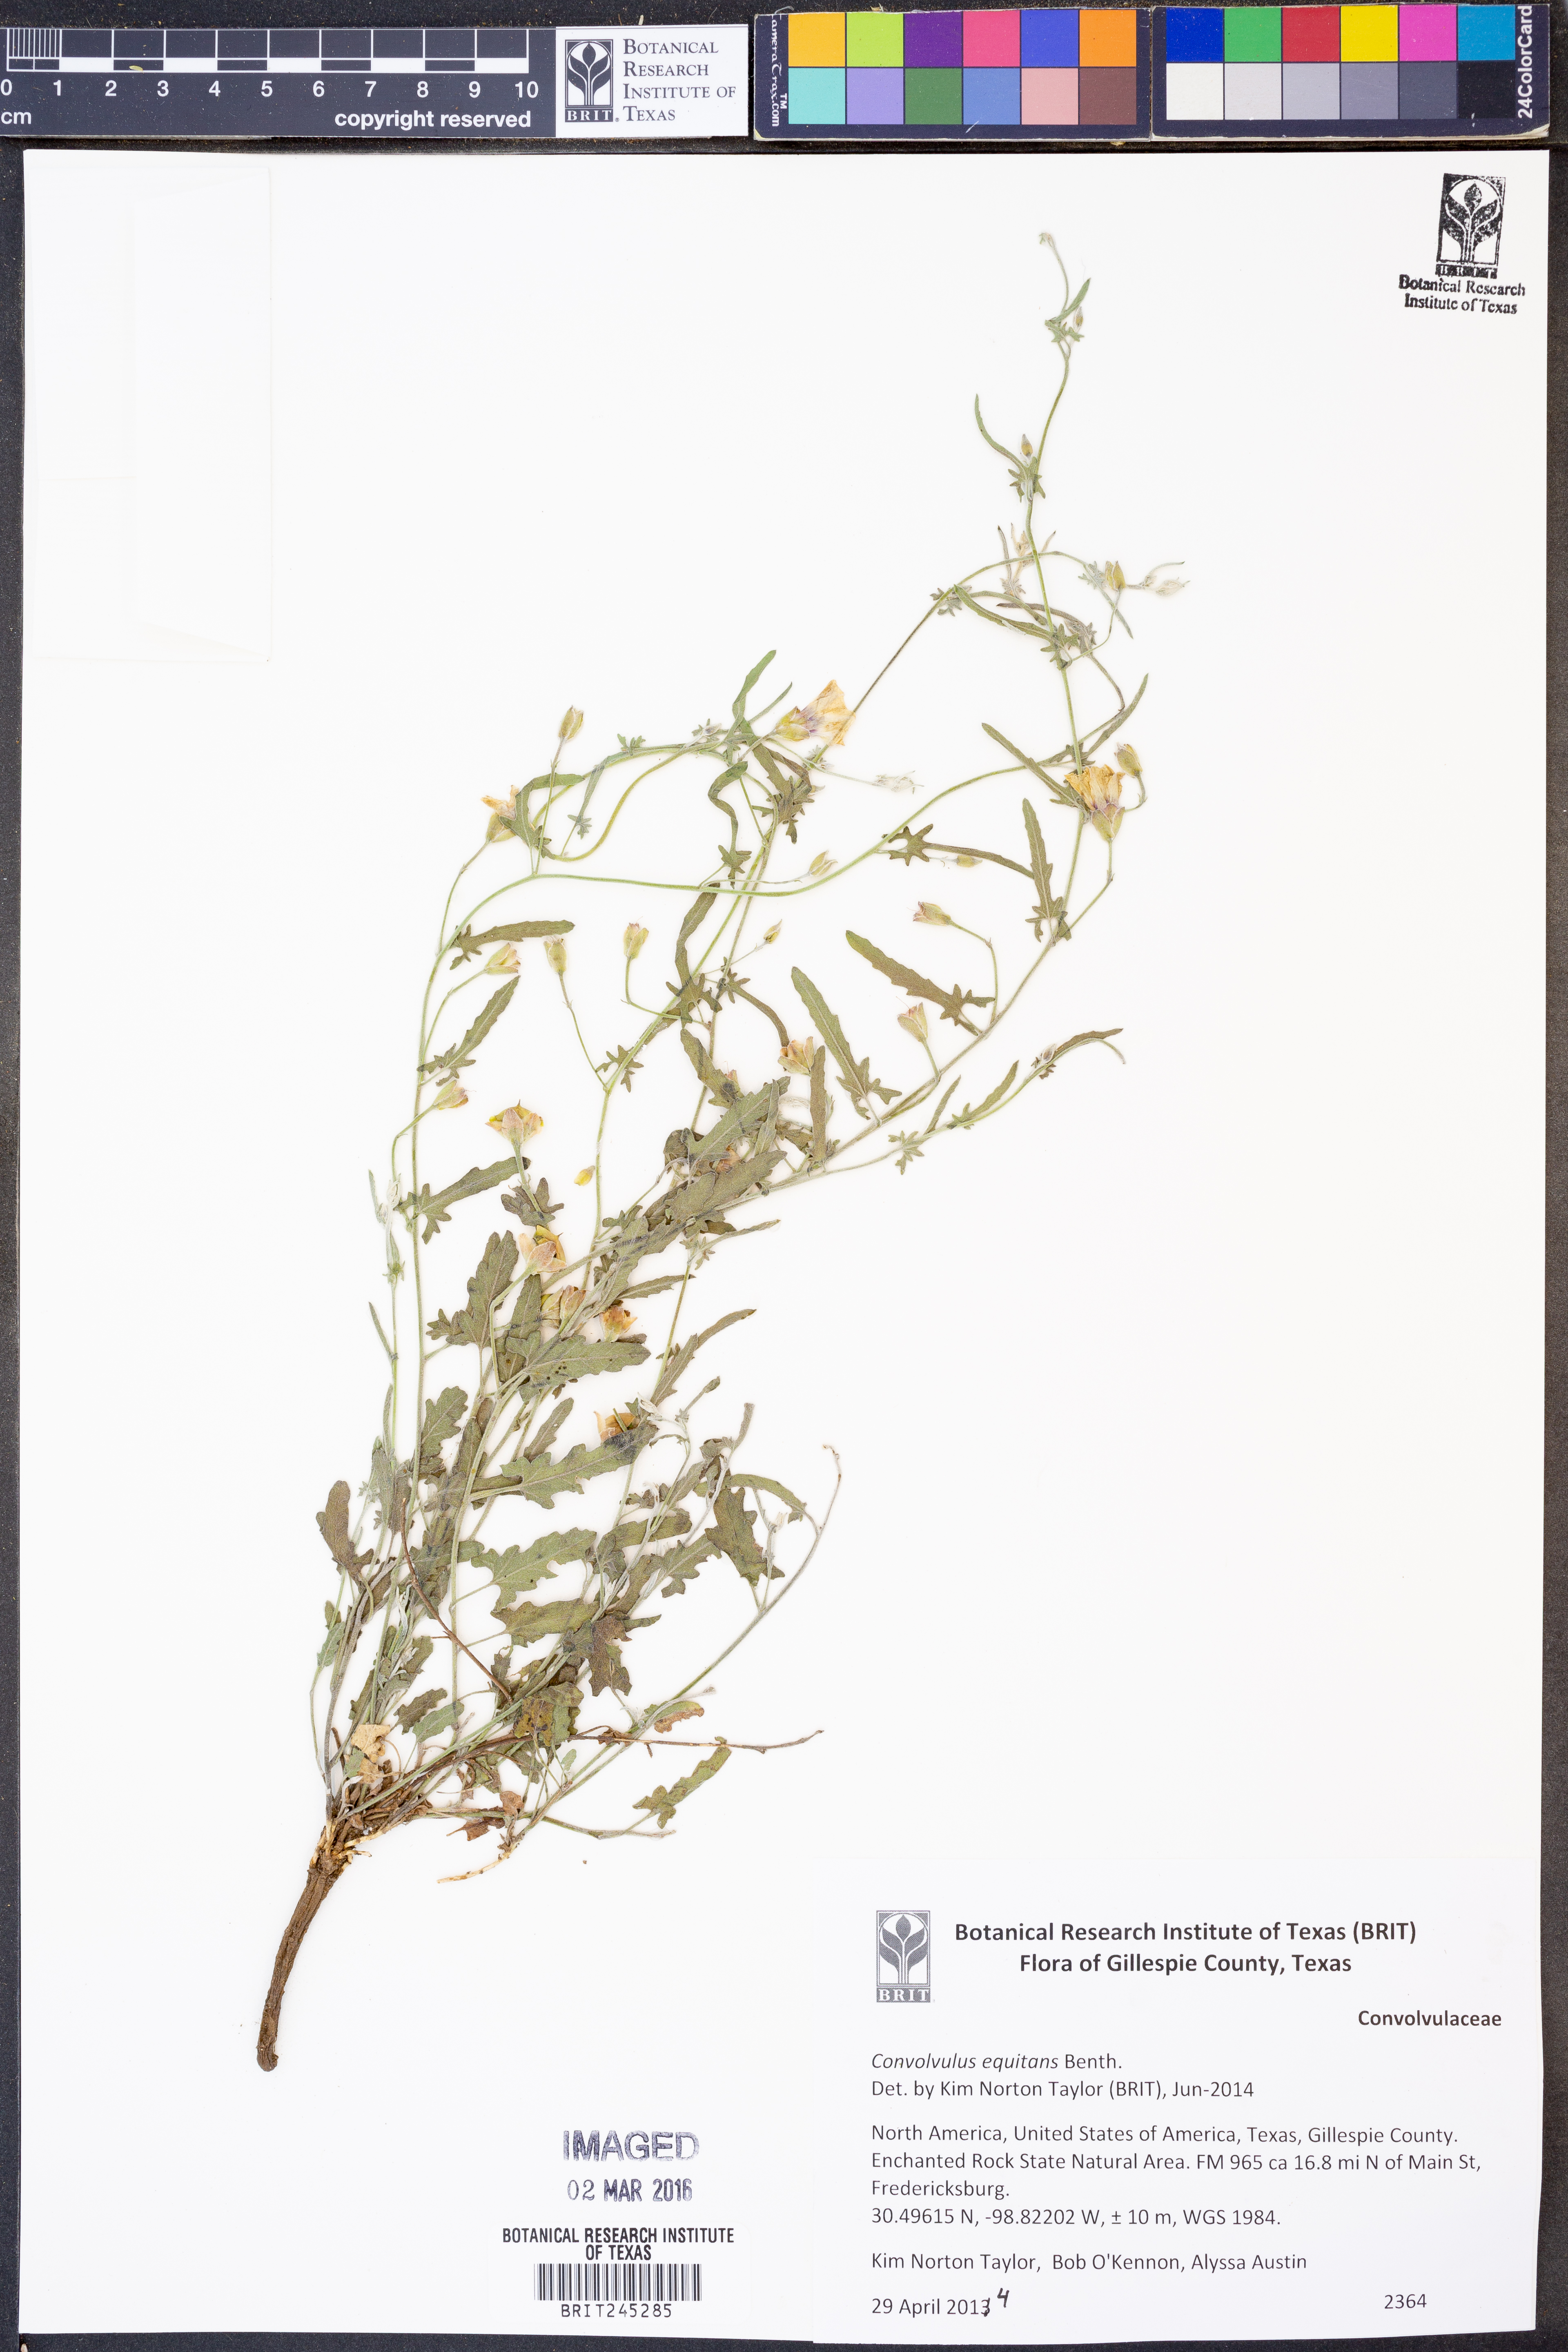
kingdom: Plantae
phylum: Tracheophyta
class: Magnoliopsida
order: Solanales
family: Convolvulaceae
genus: Convolvulus
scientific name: Convolvulus equitans
